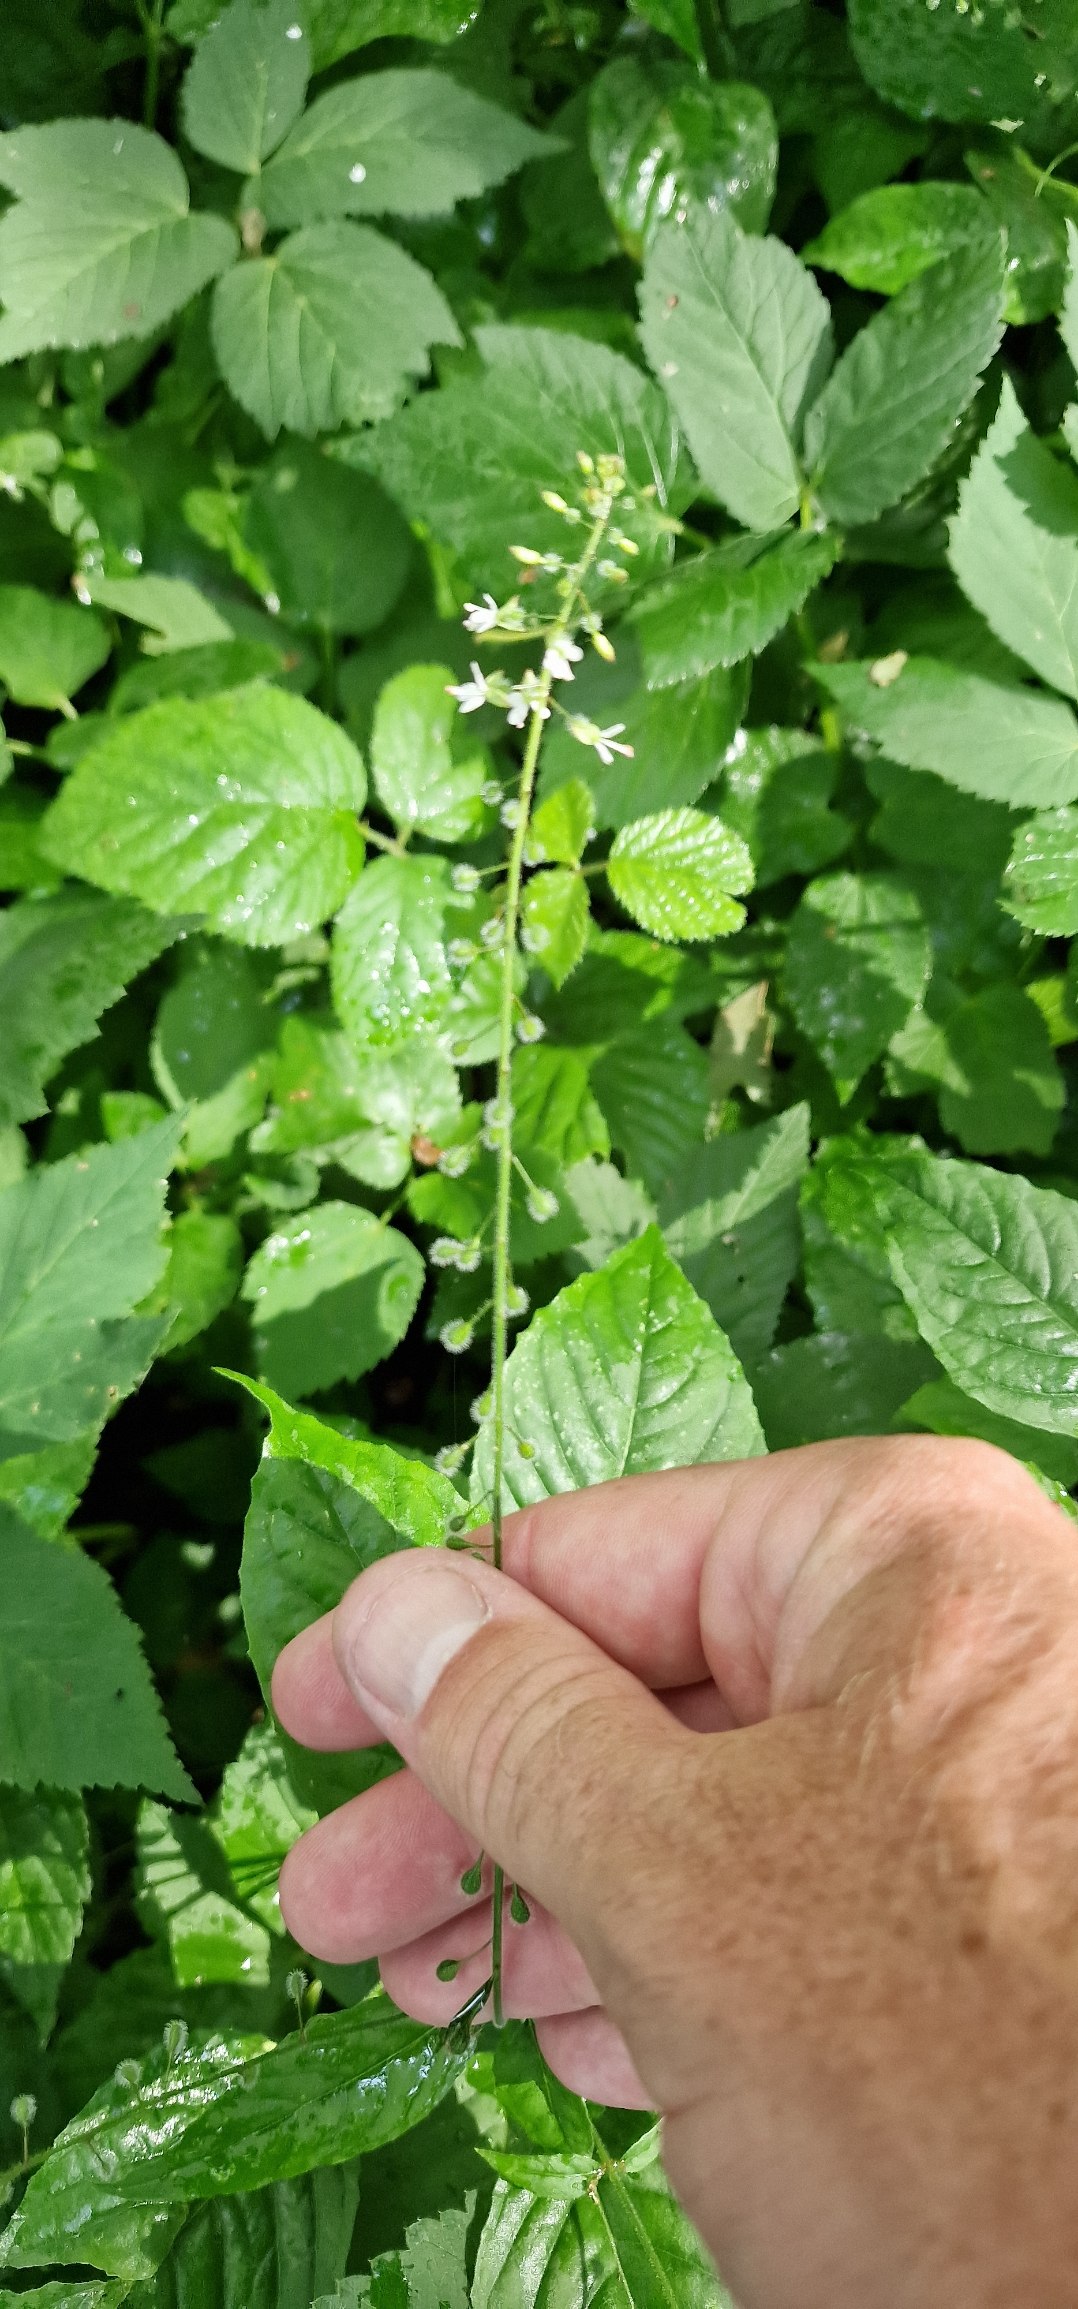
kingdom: Plantae
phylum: Tracheophyta
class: Magnoliopsida
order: Myrtales
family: Onagraceae
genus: Circaea
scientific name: Circaea lutetiana
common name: Dunet steffensurt
